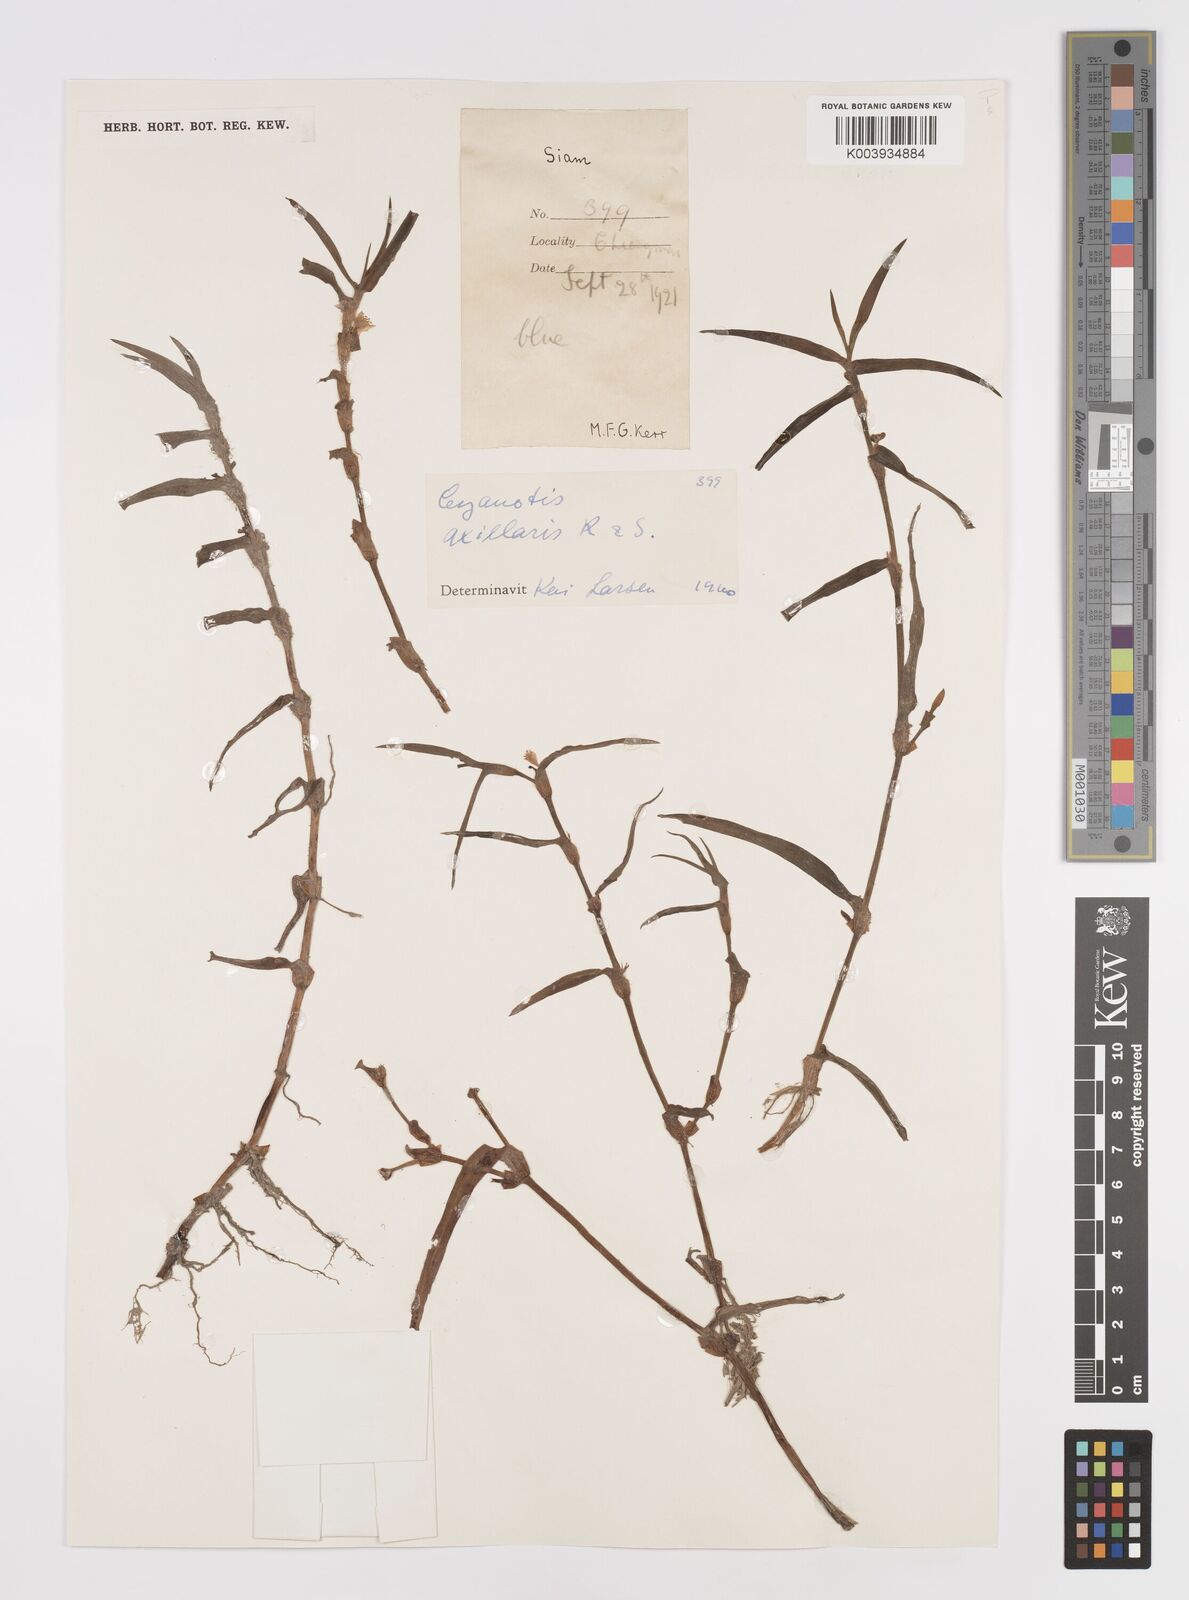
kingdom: Plantae
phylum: Tracheophyta
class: Liliopsida
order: Commelinales
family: Commelinaceae
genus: Cyanotis
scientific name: Cyanotis axillaris
